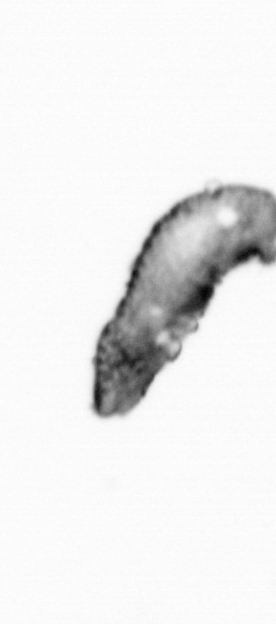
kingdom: Animalia
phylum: Annelida
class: Polychaeta
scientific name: Polychaeta
